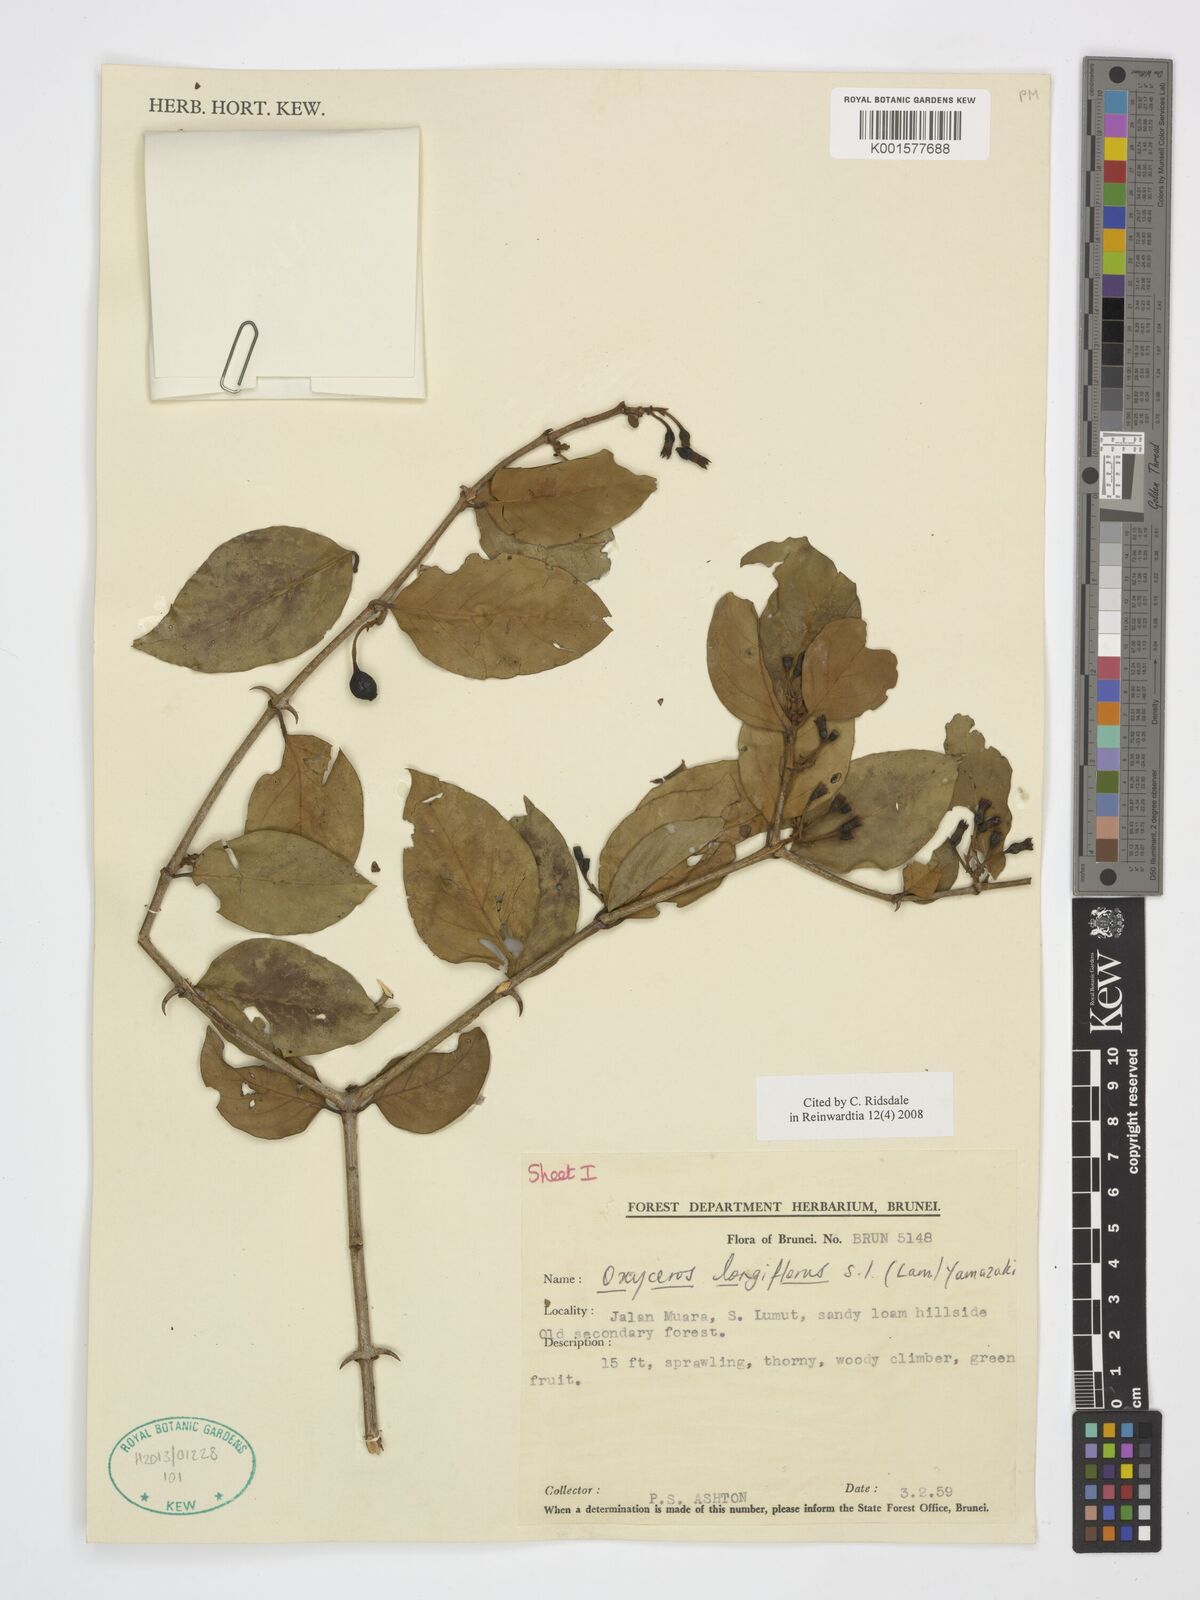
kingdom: Plantae
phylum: Tracheophyta
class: Magnoliopsida
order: Gentianales
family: Rubiaceae
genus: Oxyceros
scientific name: Oxyceros longiflorus
